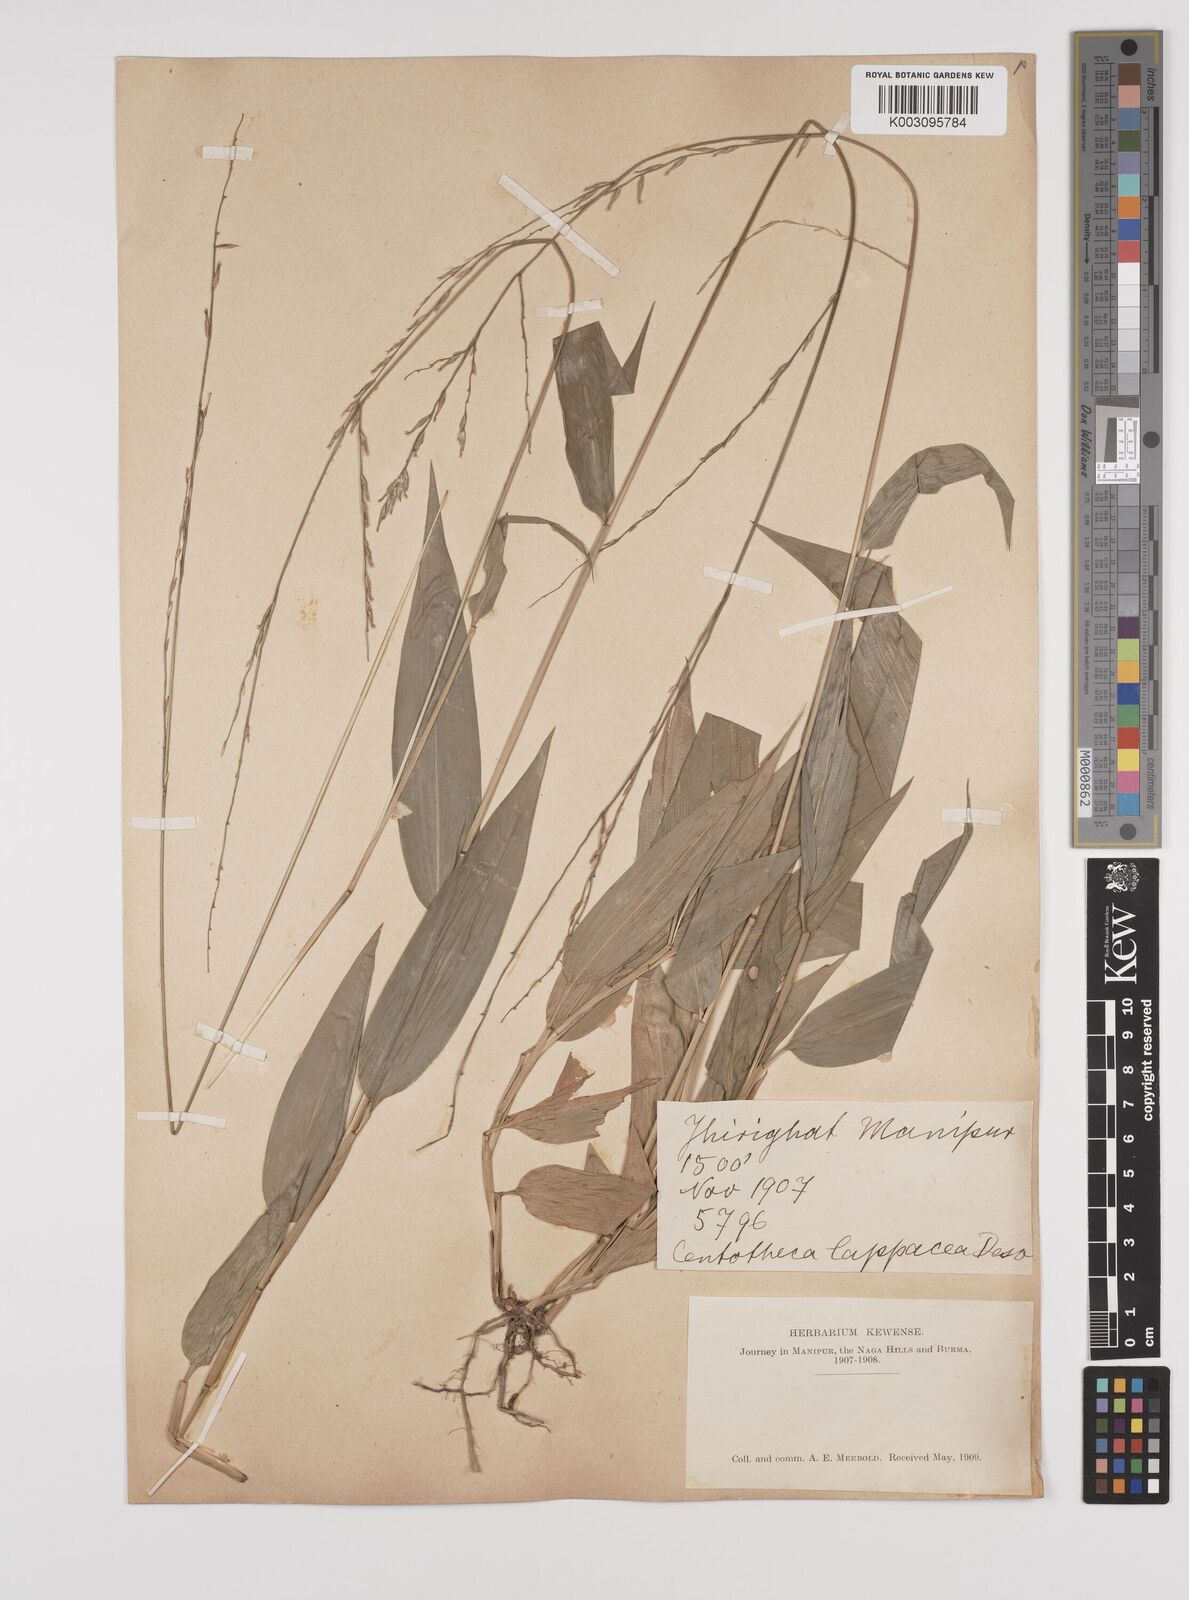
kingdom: Plantae
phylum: Tracheophyta
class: Liliopsida
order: Poales
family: Poaceae
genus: Lophatherum
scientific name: Lophatherum gracile
